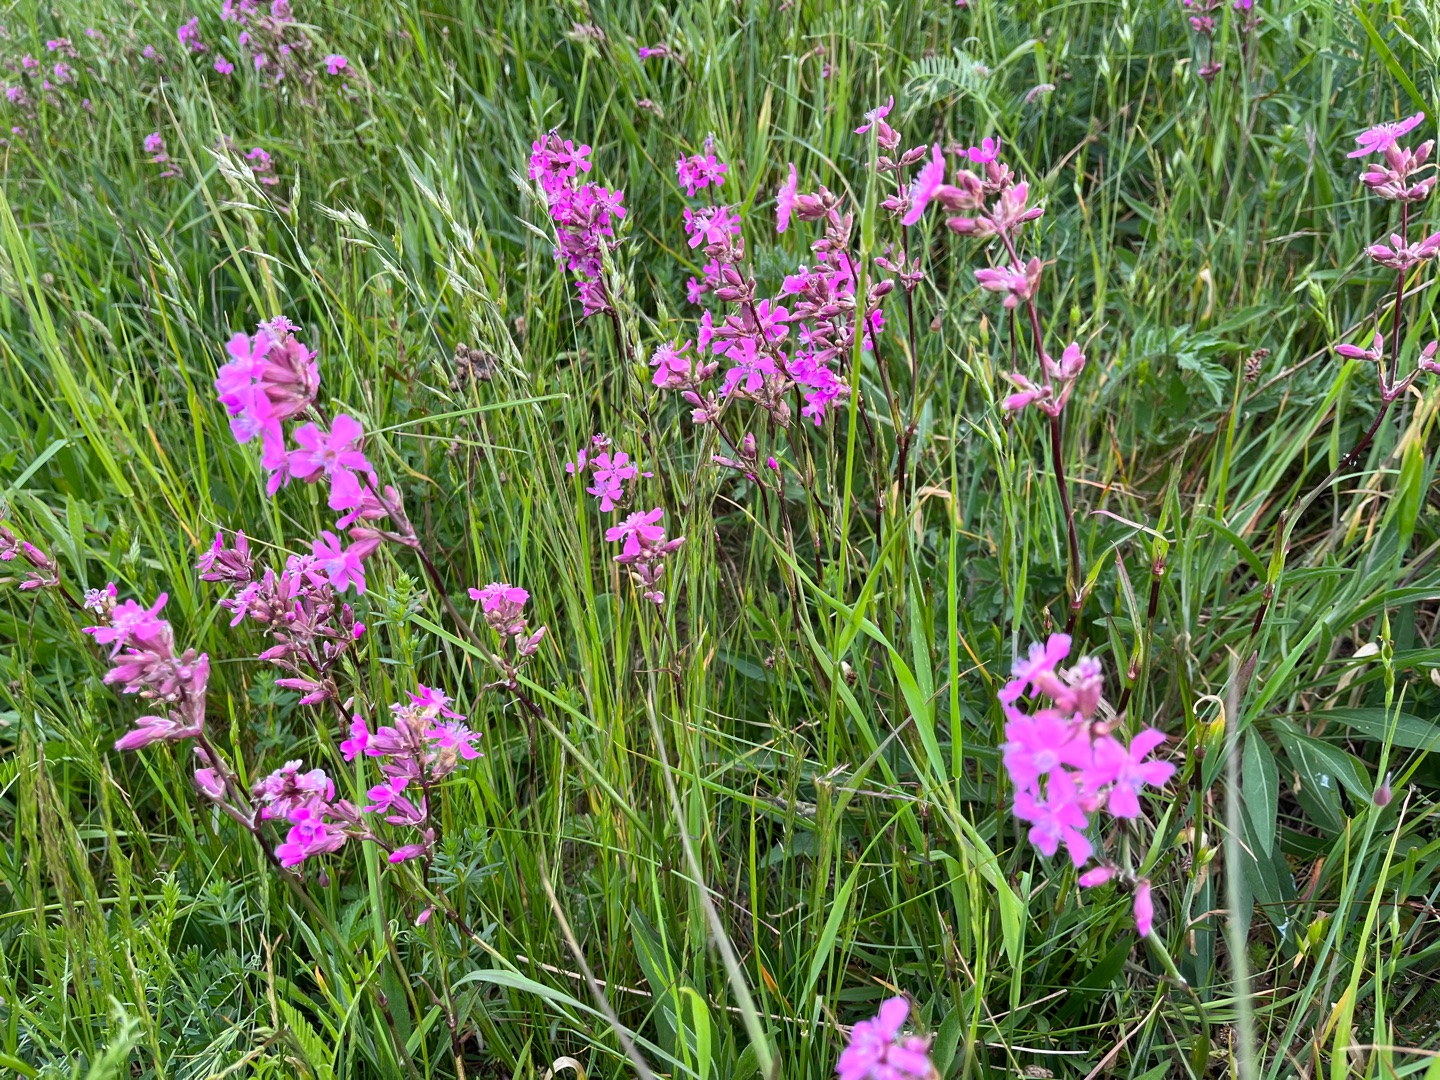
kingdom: Plantae
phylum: Tracheophyta
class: Magnoliopsida
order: Caryophyllales
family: Caryophyllaceae
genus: Viscaria
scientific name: Viscaria vulgaris
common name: Tjærenellike
